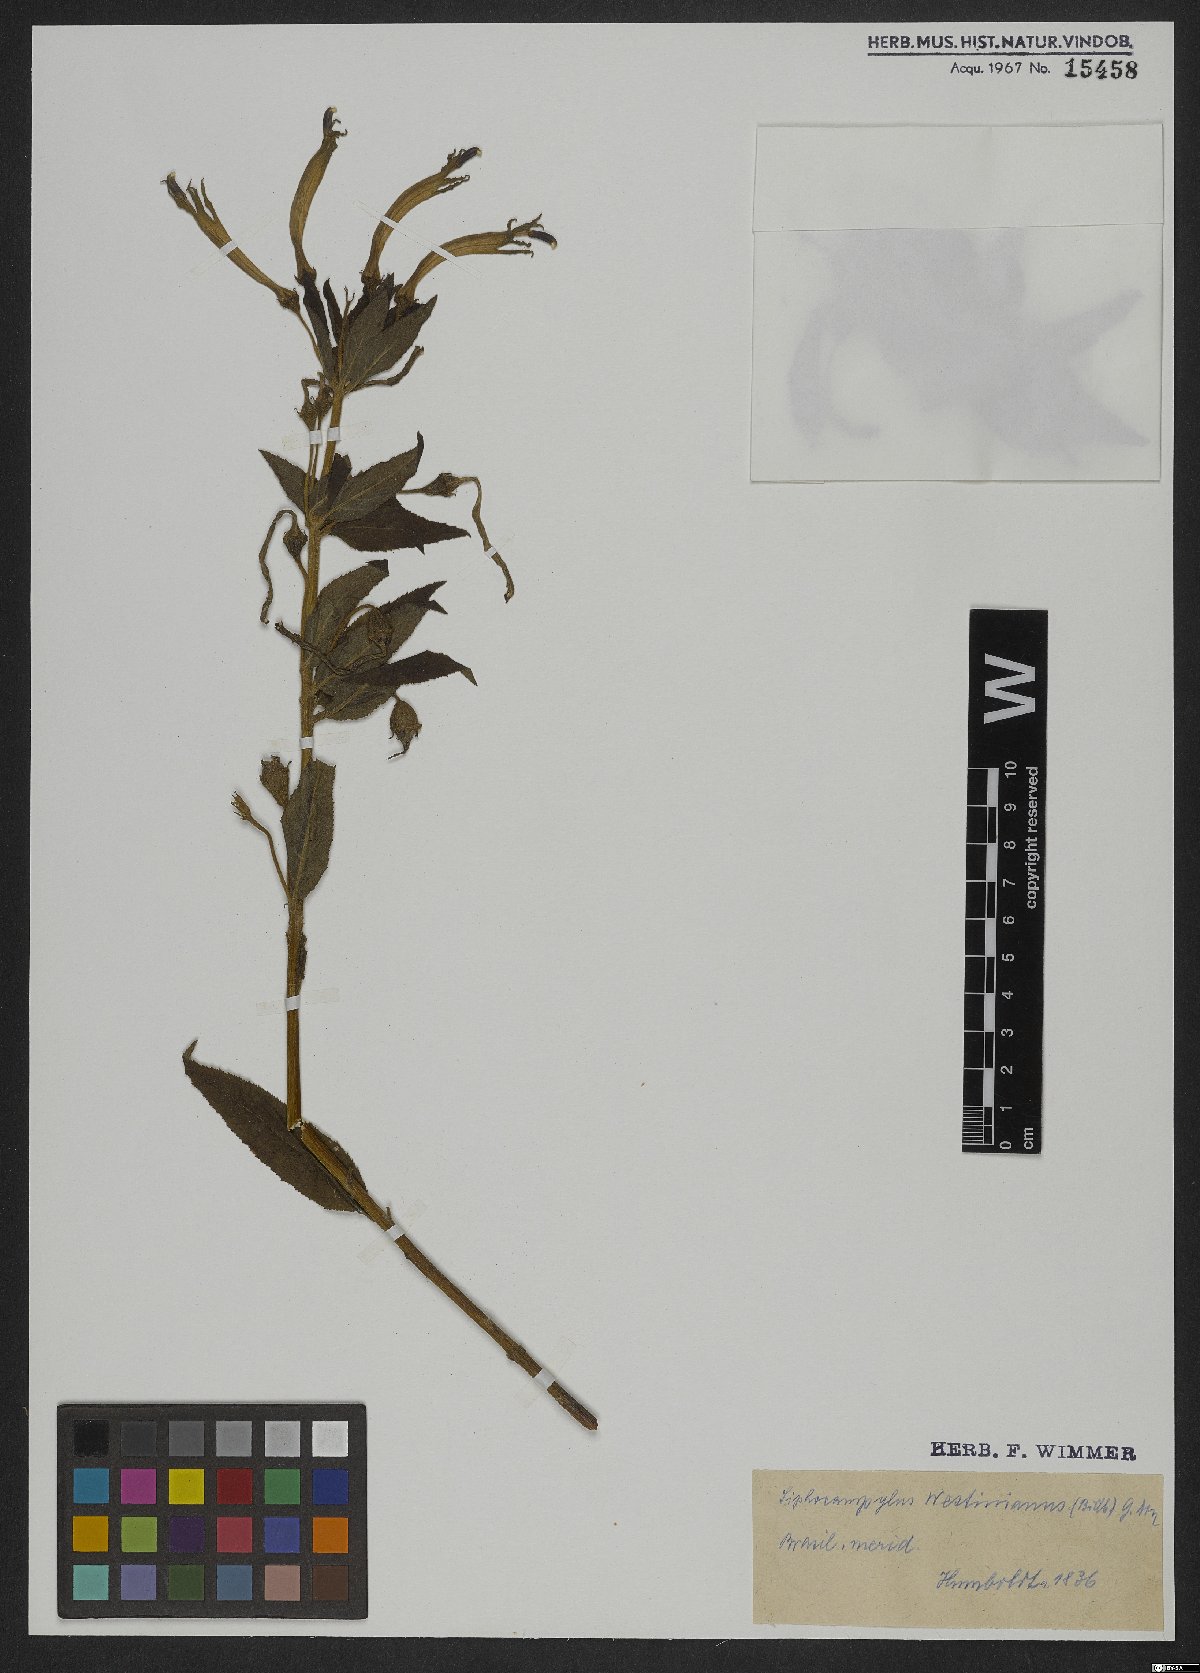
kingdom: Plantae
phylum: Tracheophyta
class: Magnoliopsida
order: Asterales
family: Campanulaceae
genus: Siphocampylus
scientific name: Siphocampylus westinianus
